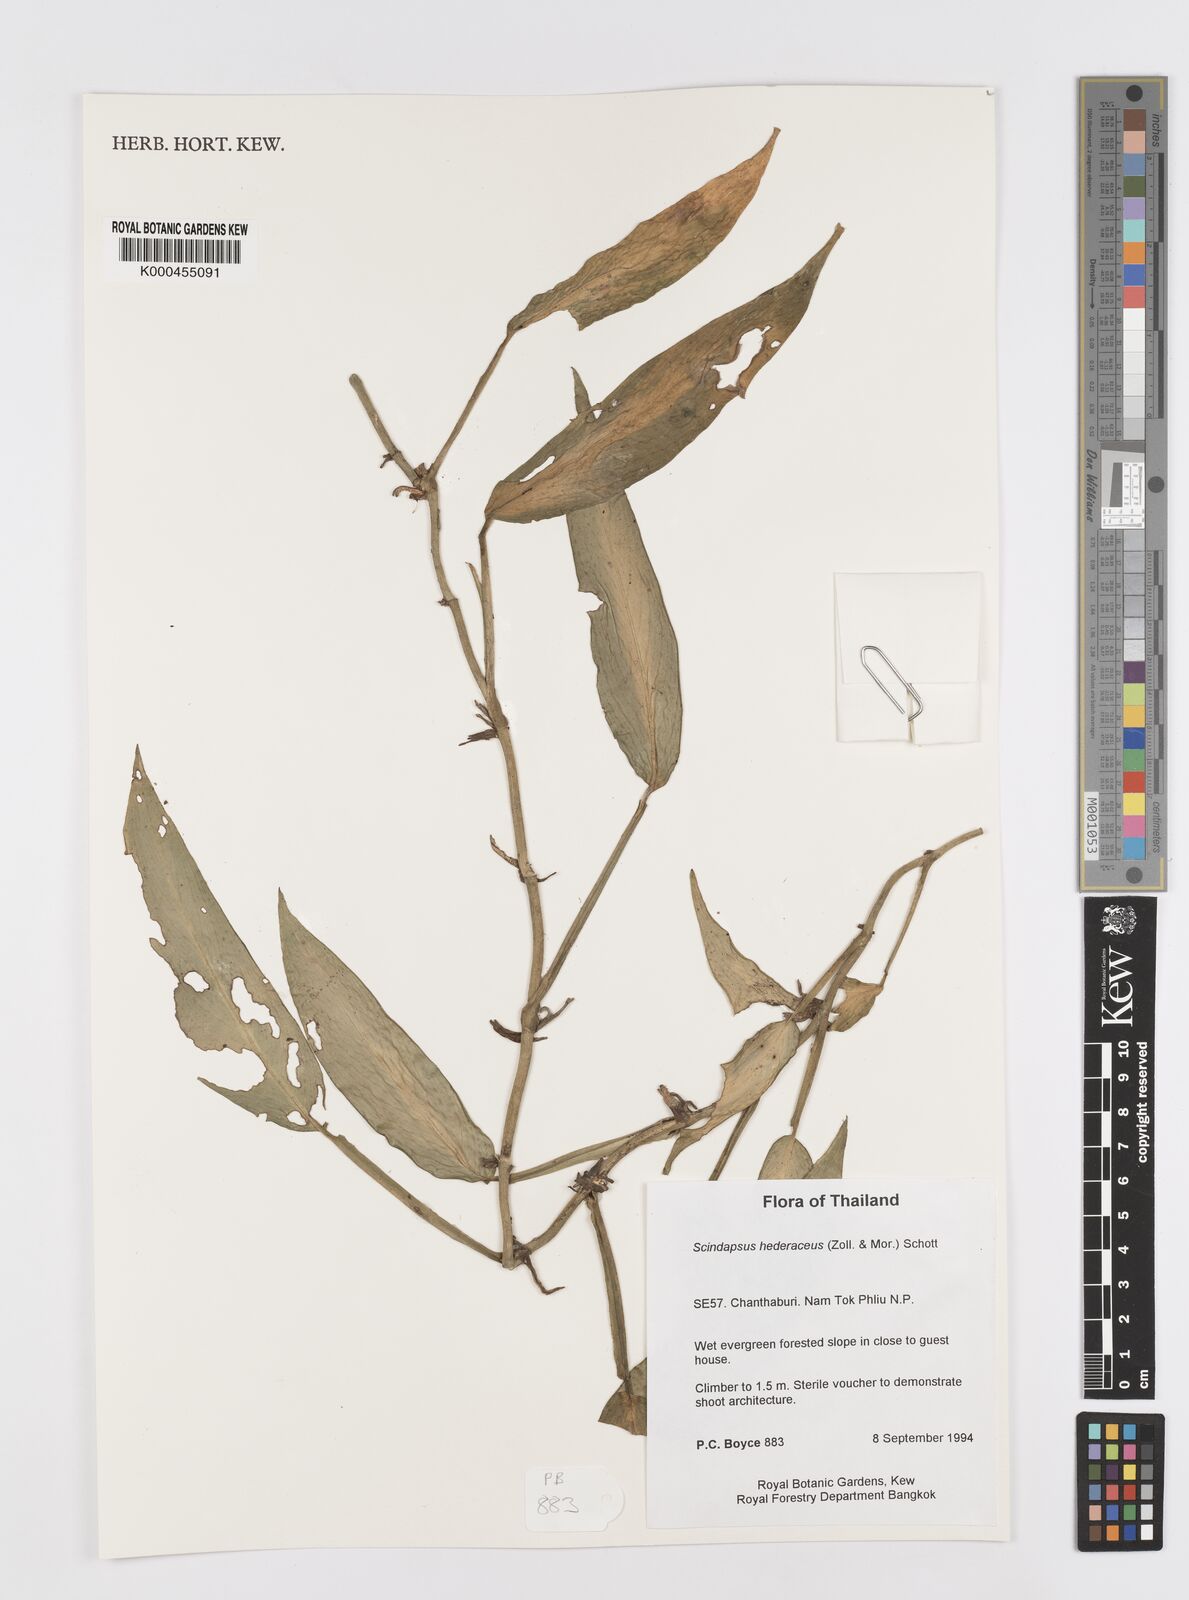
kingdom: Plantae
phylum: Tracheophyta
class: Liliopsida
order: Alismatales
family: Araceae
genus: Scindapsus
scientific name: Scindapsus hederaceus
